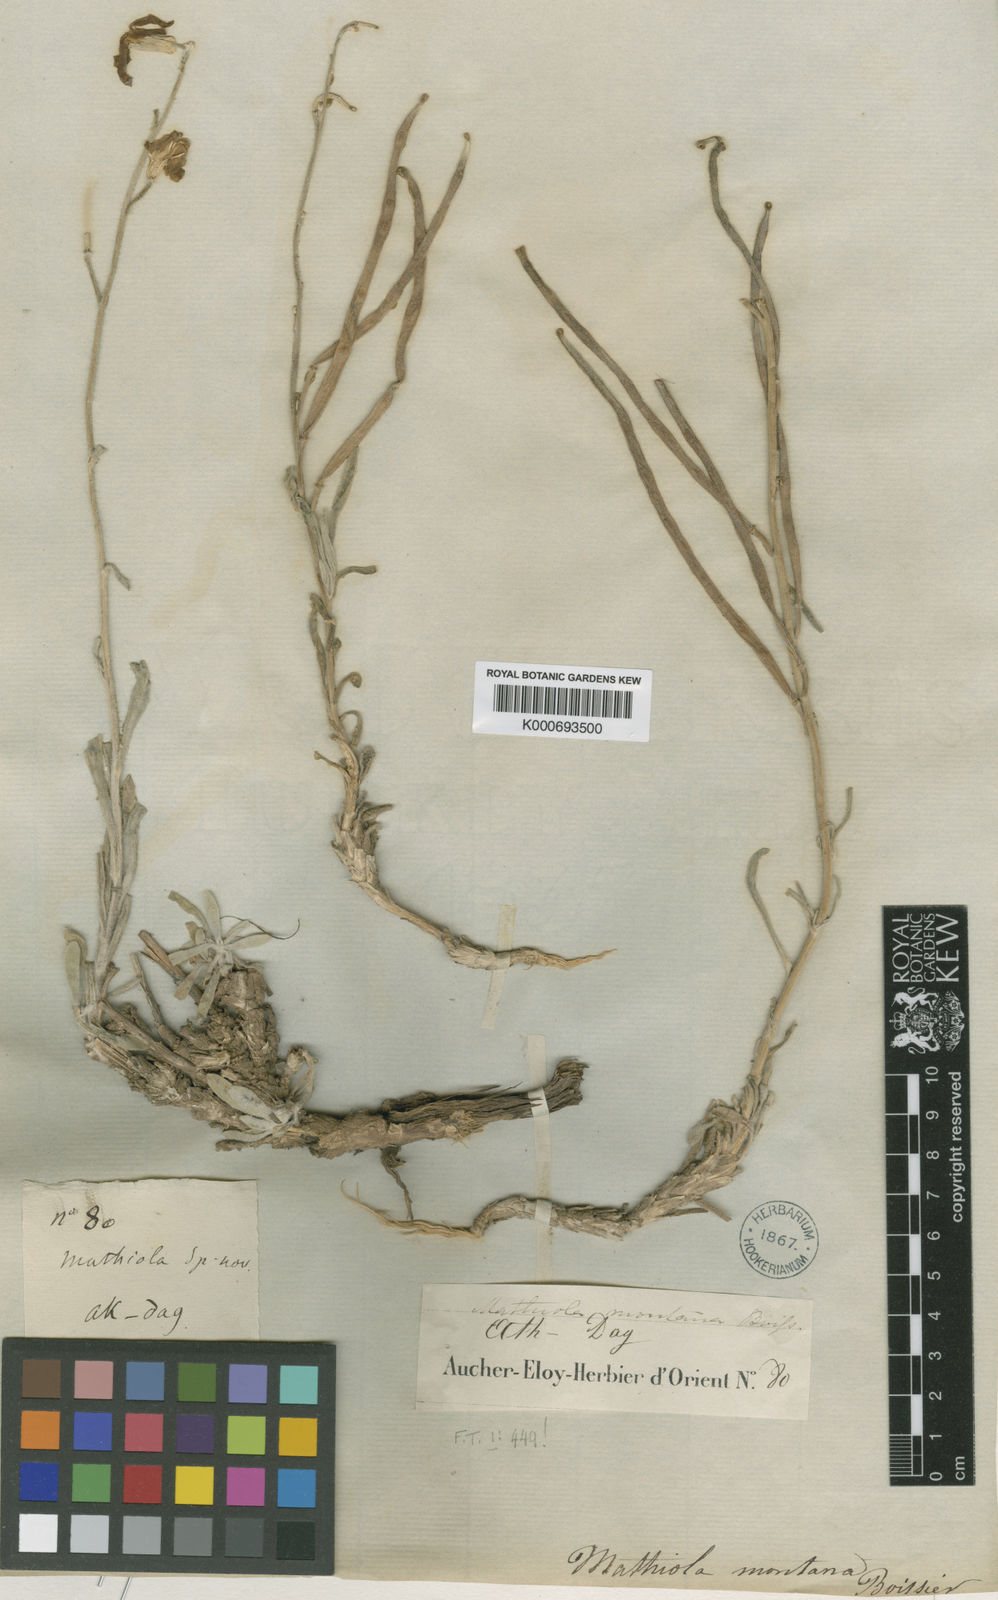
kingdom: Plantae
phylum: Tracheophyta
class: Magnoliopsida
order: Brassicales
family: Brassicaceae
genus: Matthiola
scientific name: Matthiola montana
